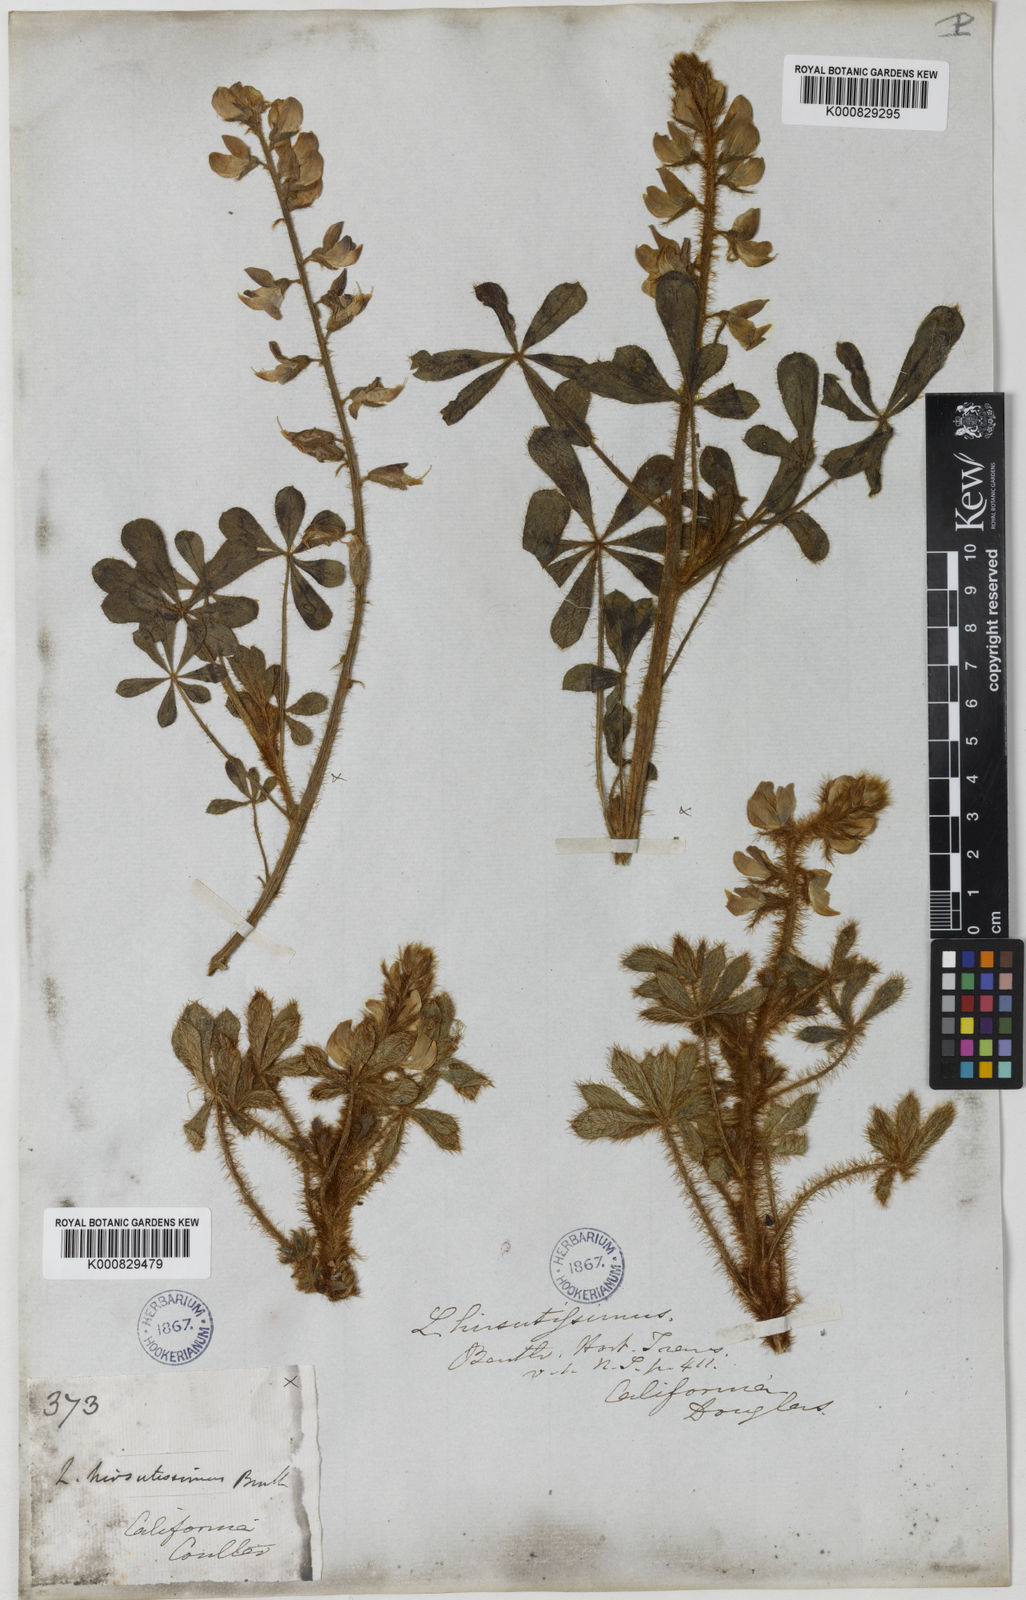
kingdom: Plantae
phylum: Tracheophyta
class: Magnoliopsida
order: Fabales
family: Fabaceae
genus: Lupinus
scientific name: Lupinus hirsutissimus
